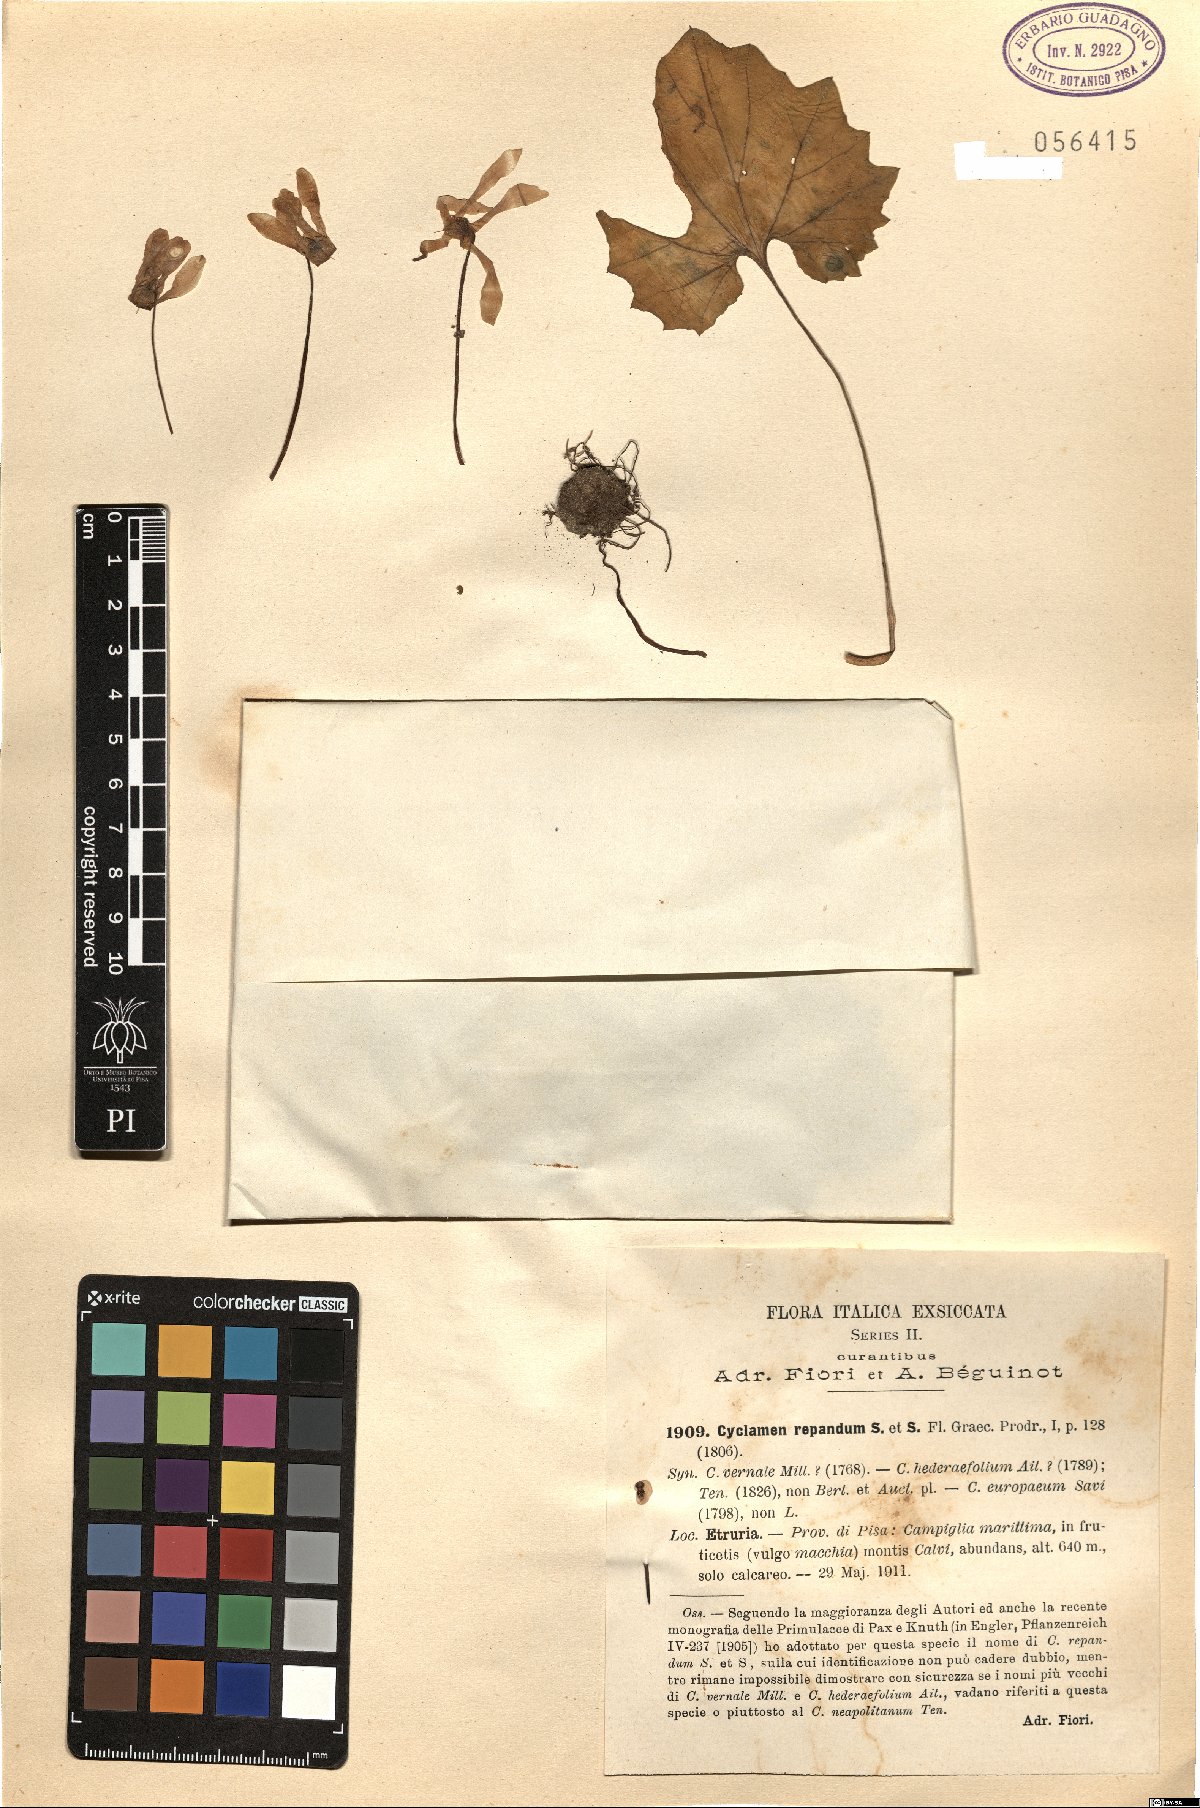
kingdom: Plantae
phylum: Tracheophyta
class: Magnoliopsida
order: Ericales
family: Primulaceae
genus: Cyclamen
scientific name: Cyclamen repandum
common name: Spring sowbread
